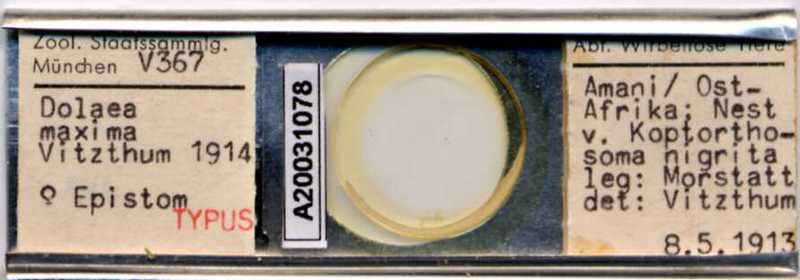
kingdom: Animalia
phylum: Arthropoda
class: Arachnida
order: Mesostigmata
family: Laelapidae
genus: Dinogamasus
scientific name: Dinogamasus
